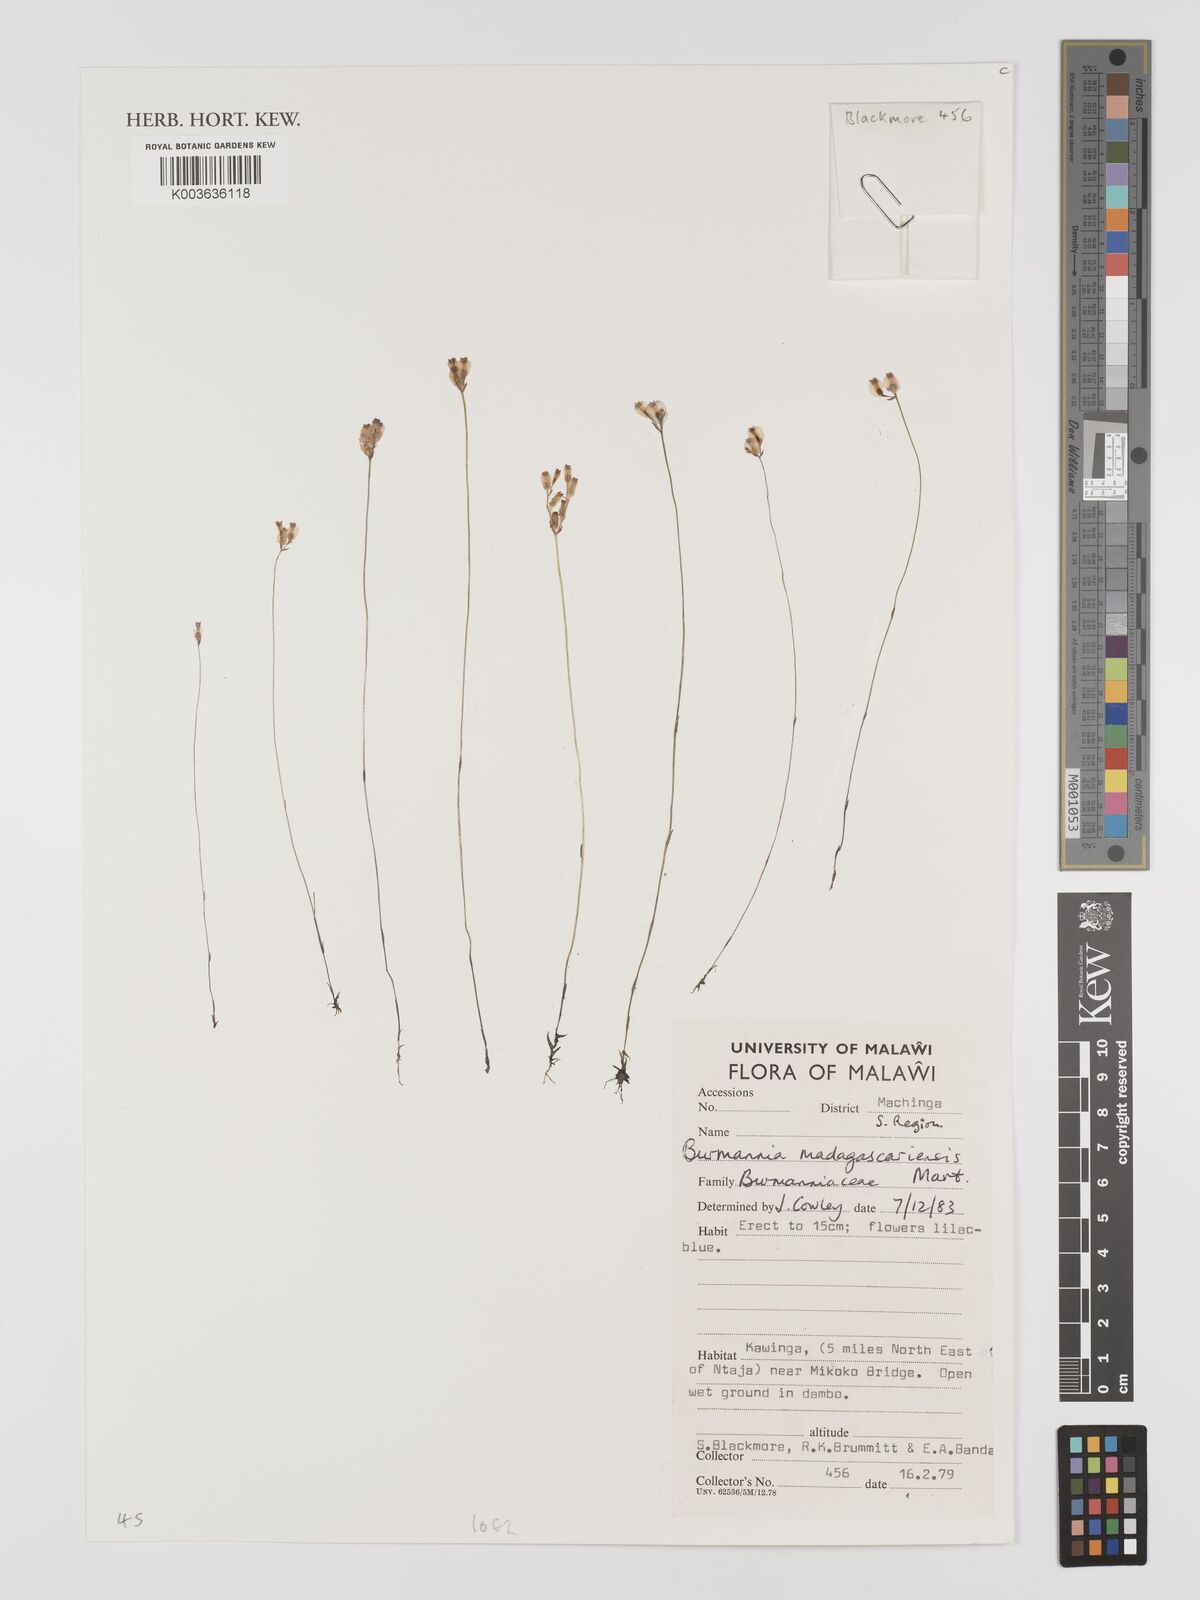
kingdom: Plantae
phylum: Tracheophyta
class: Liliopsida
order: Dioscoreales
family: Burmanniaceae
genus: Burmannia
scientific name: Burmannia madagascariensis
